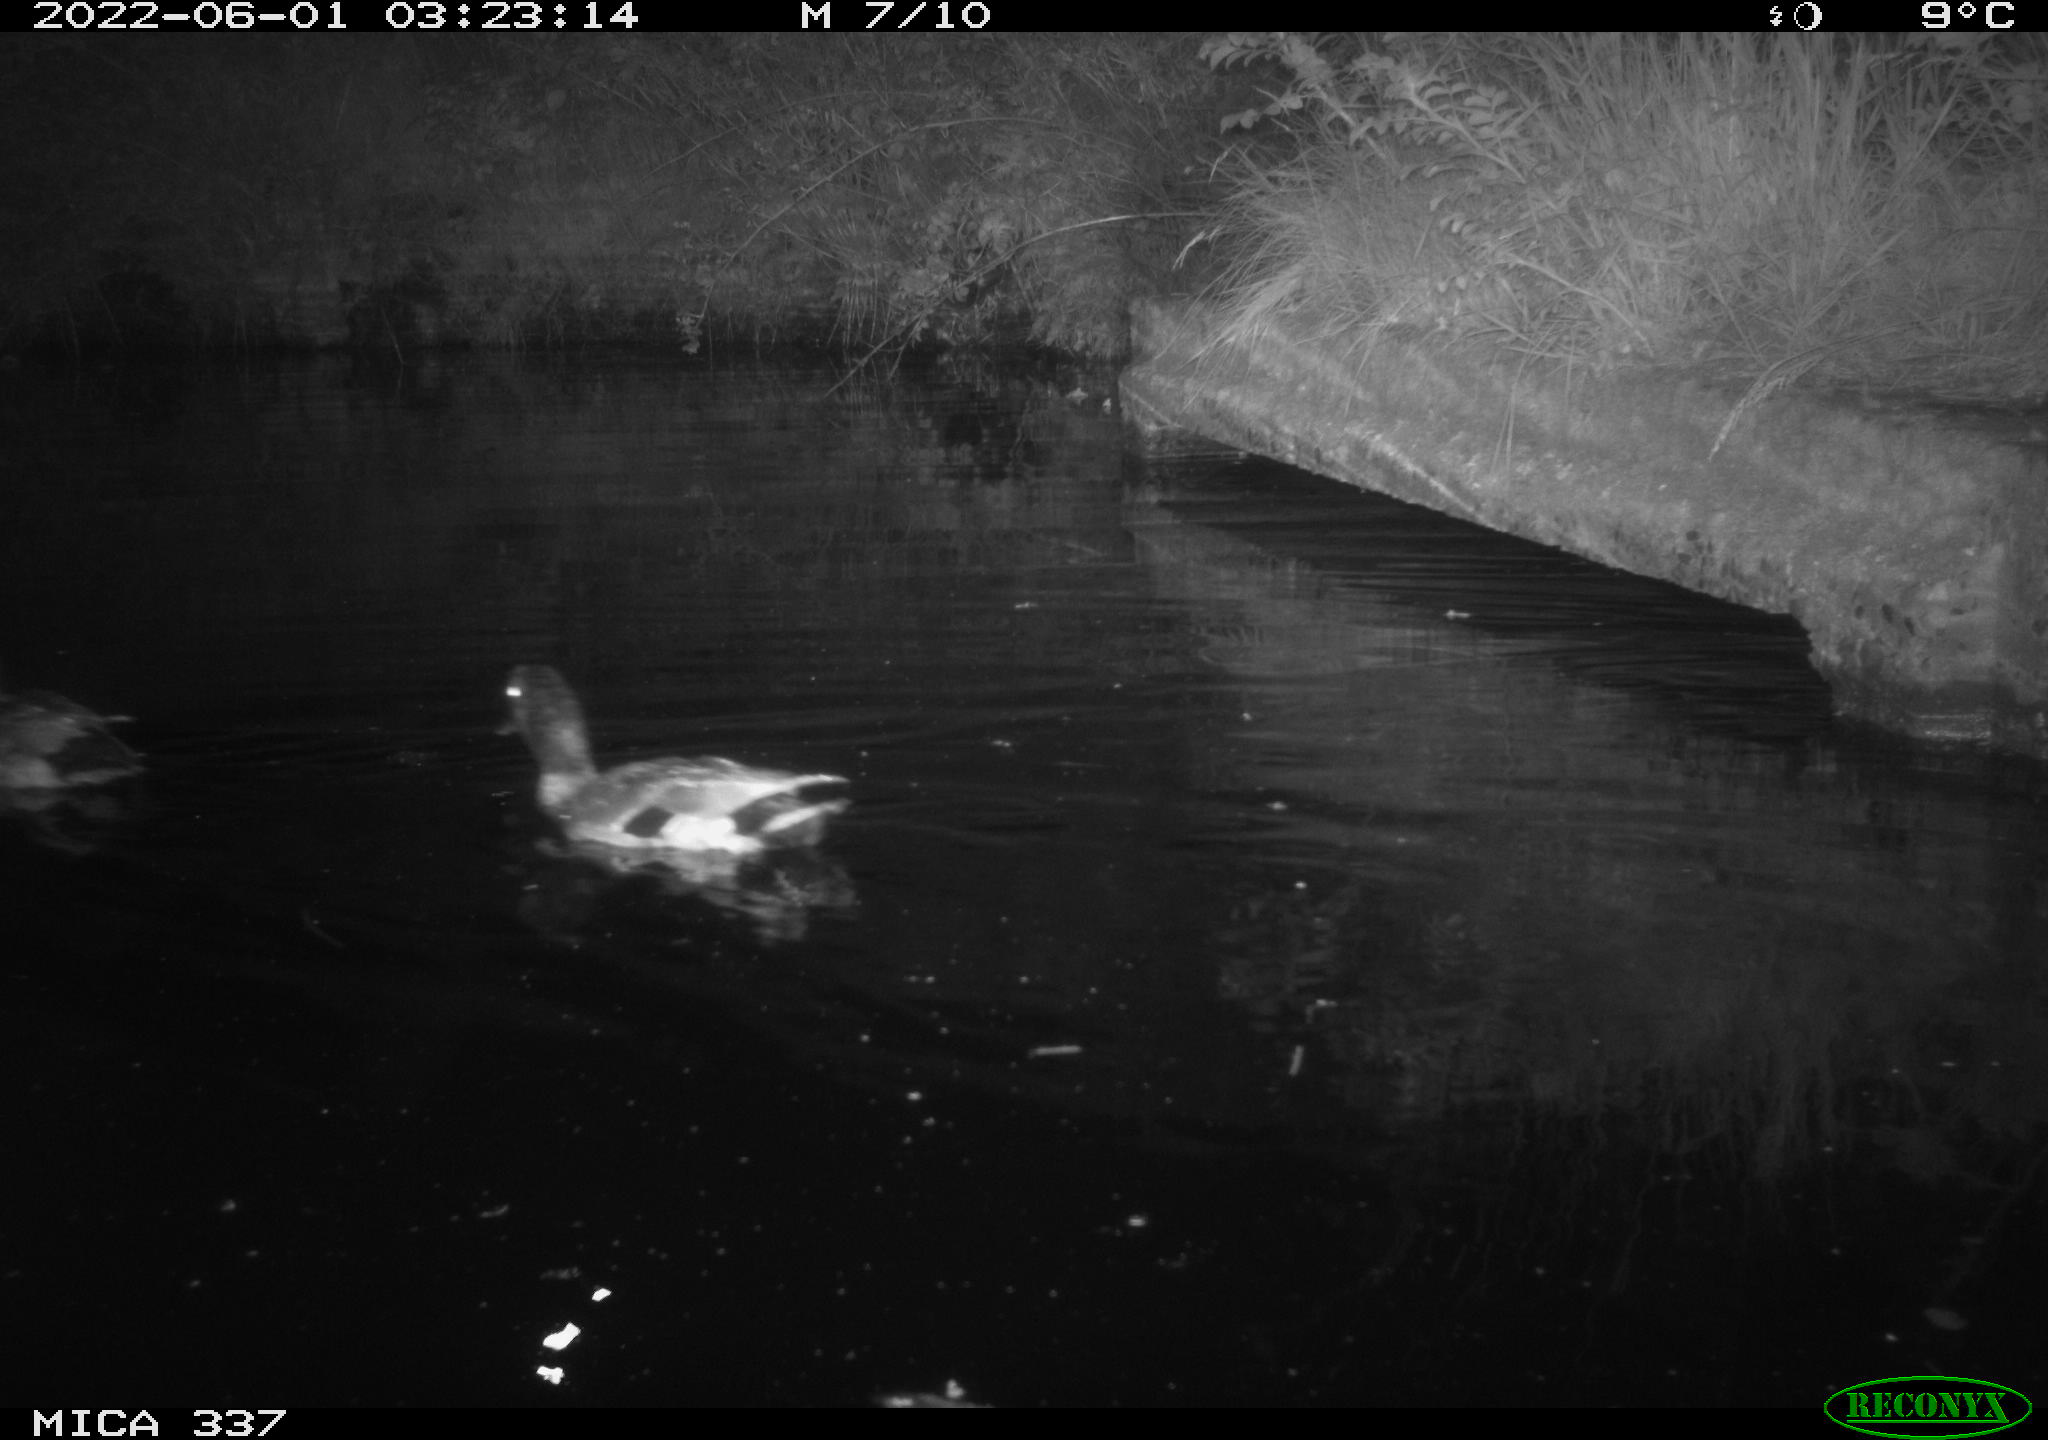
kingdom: Animalia
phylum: Chordata
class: Aves
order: Anseriformes
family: Anatidae
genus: Anas
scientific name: Anas platyrhynchos
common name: Mallard
